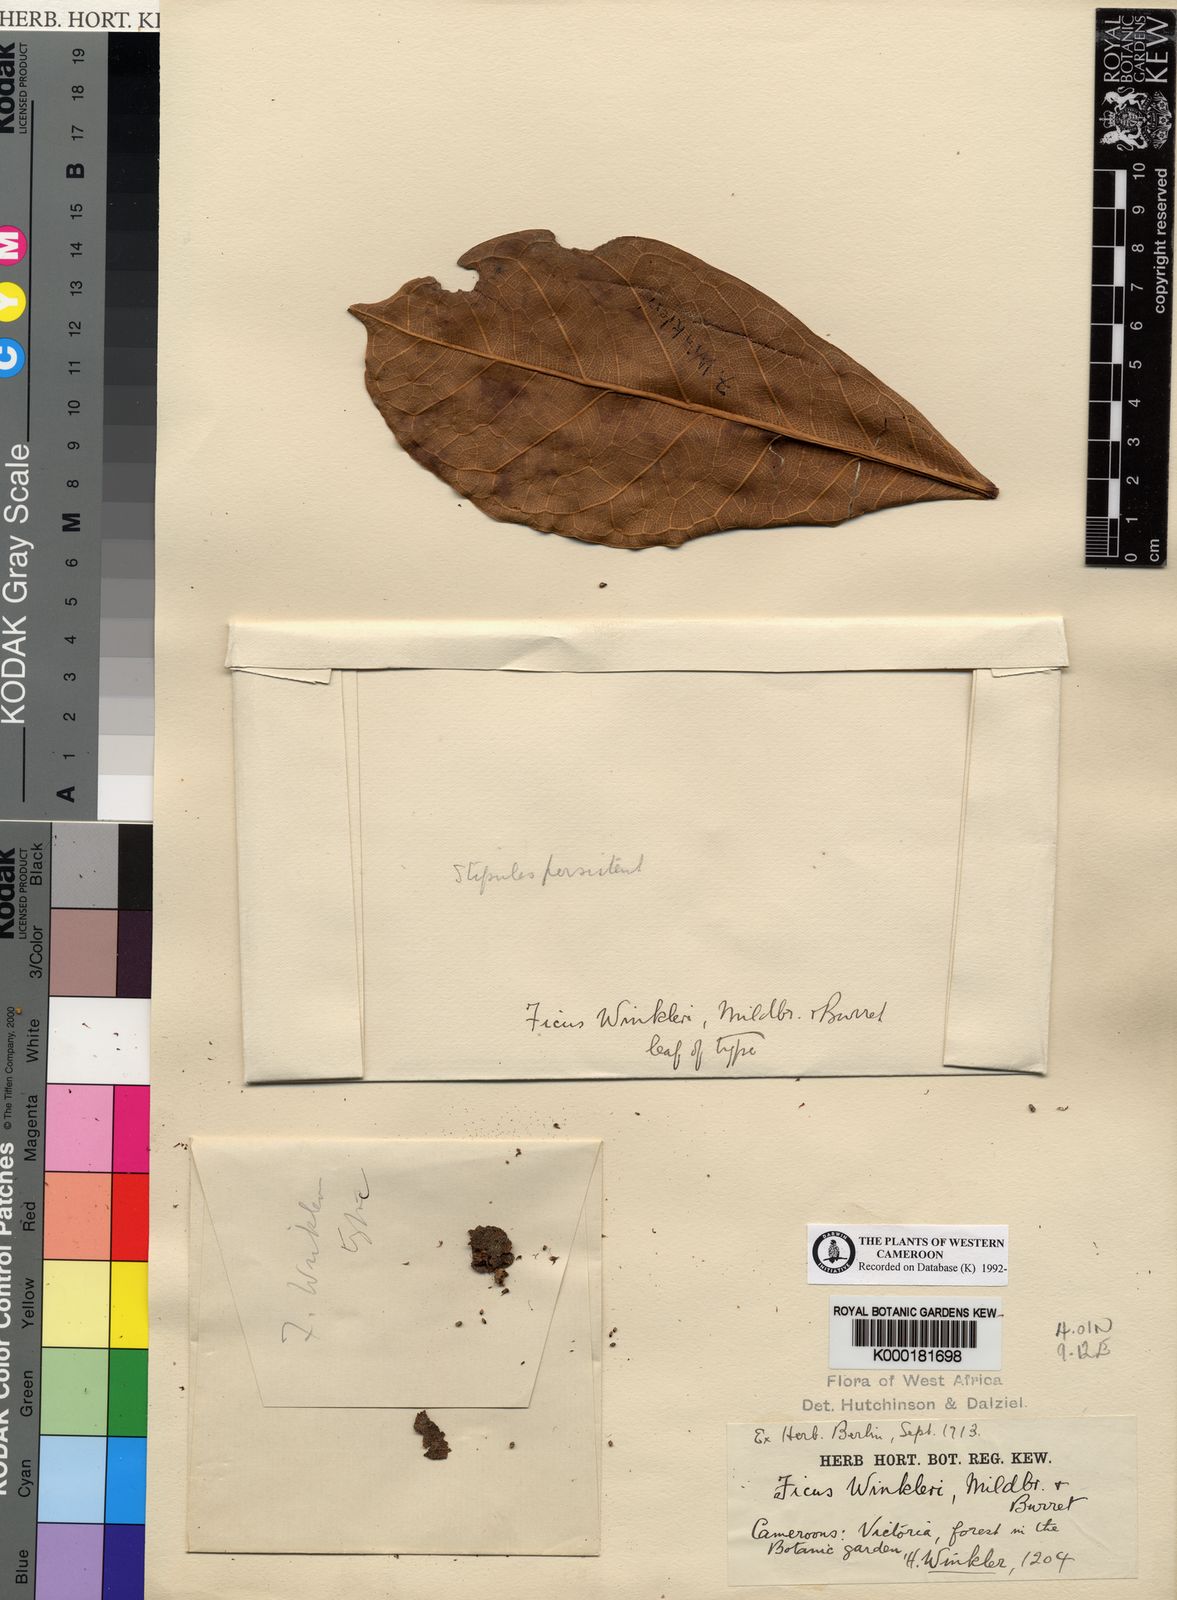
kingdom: Plantae
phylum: Tracheophyta
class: Magnoliopsida
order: Rosales
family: Moraceae
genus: Ficus
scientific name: Ficus tesselata
